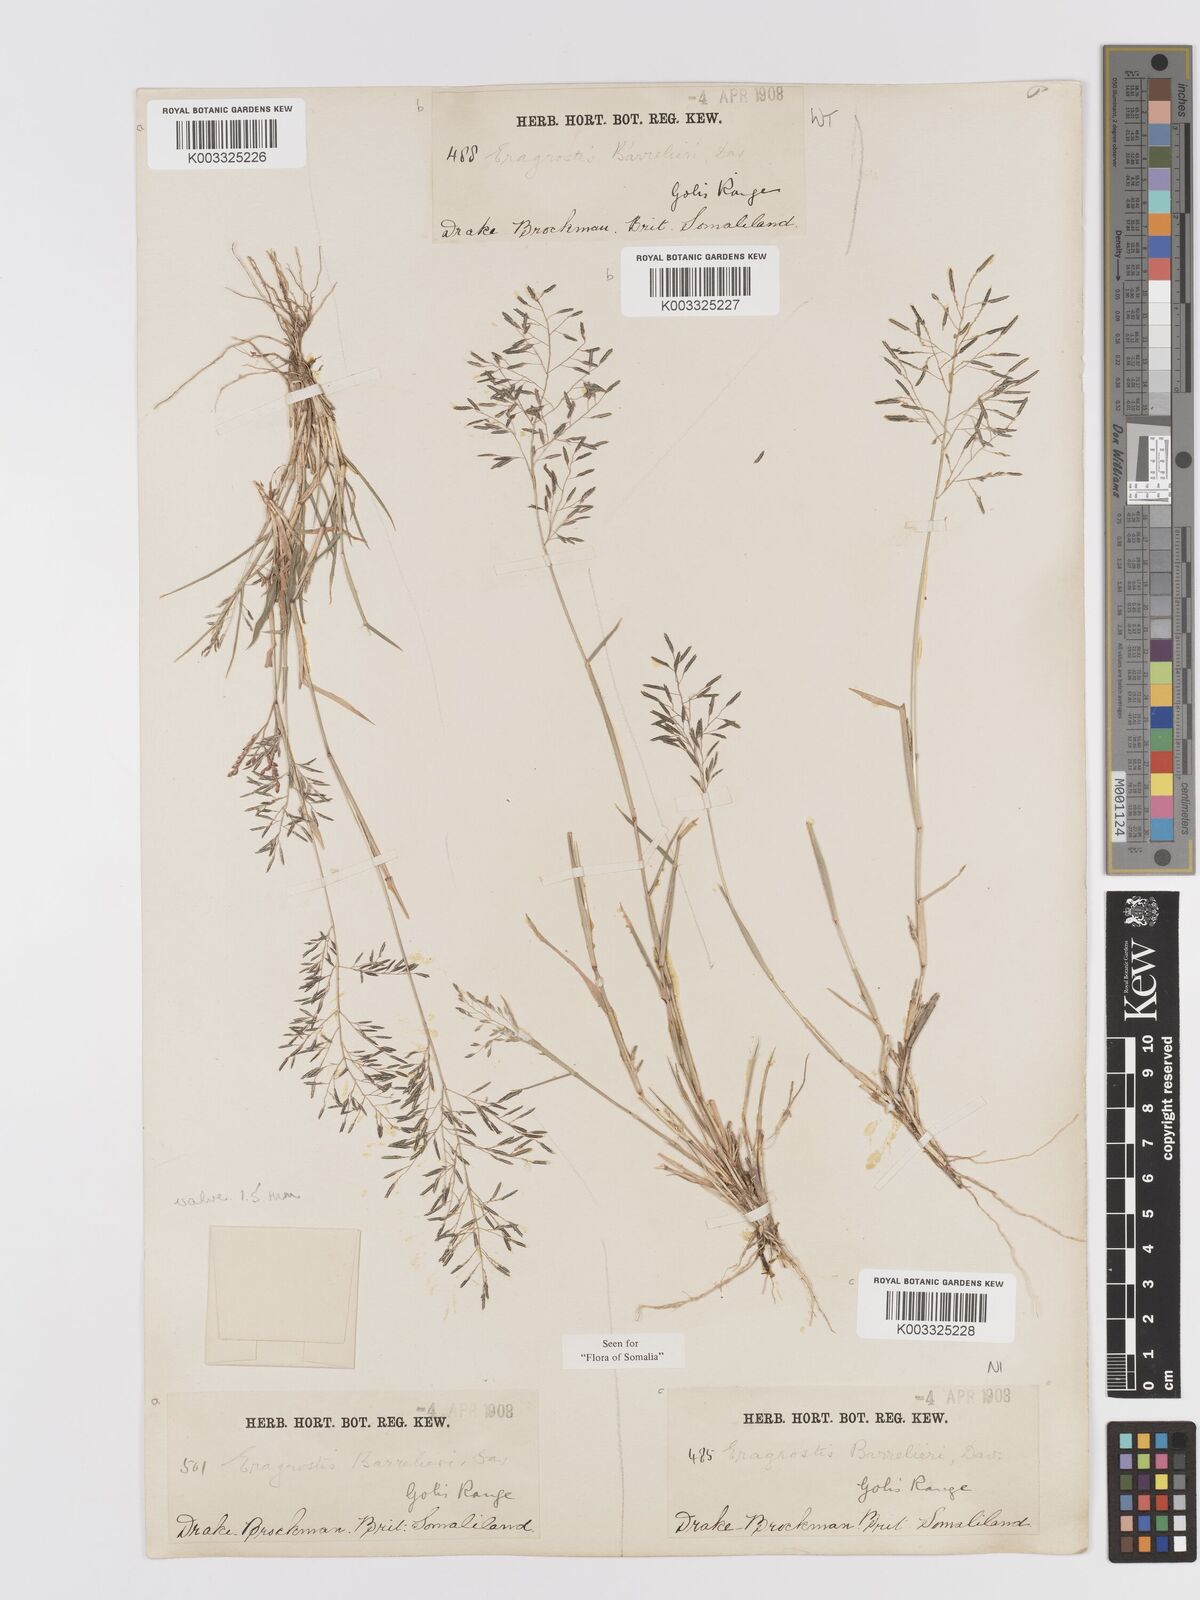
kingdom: Plantae
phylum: Tracheophyta
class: Liliopsida
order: Poales
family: Poaceae
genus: Eragrostis
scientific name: Eragrostis papposa
